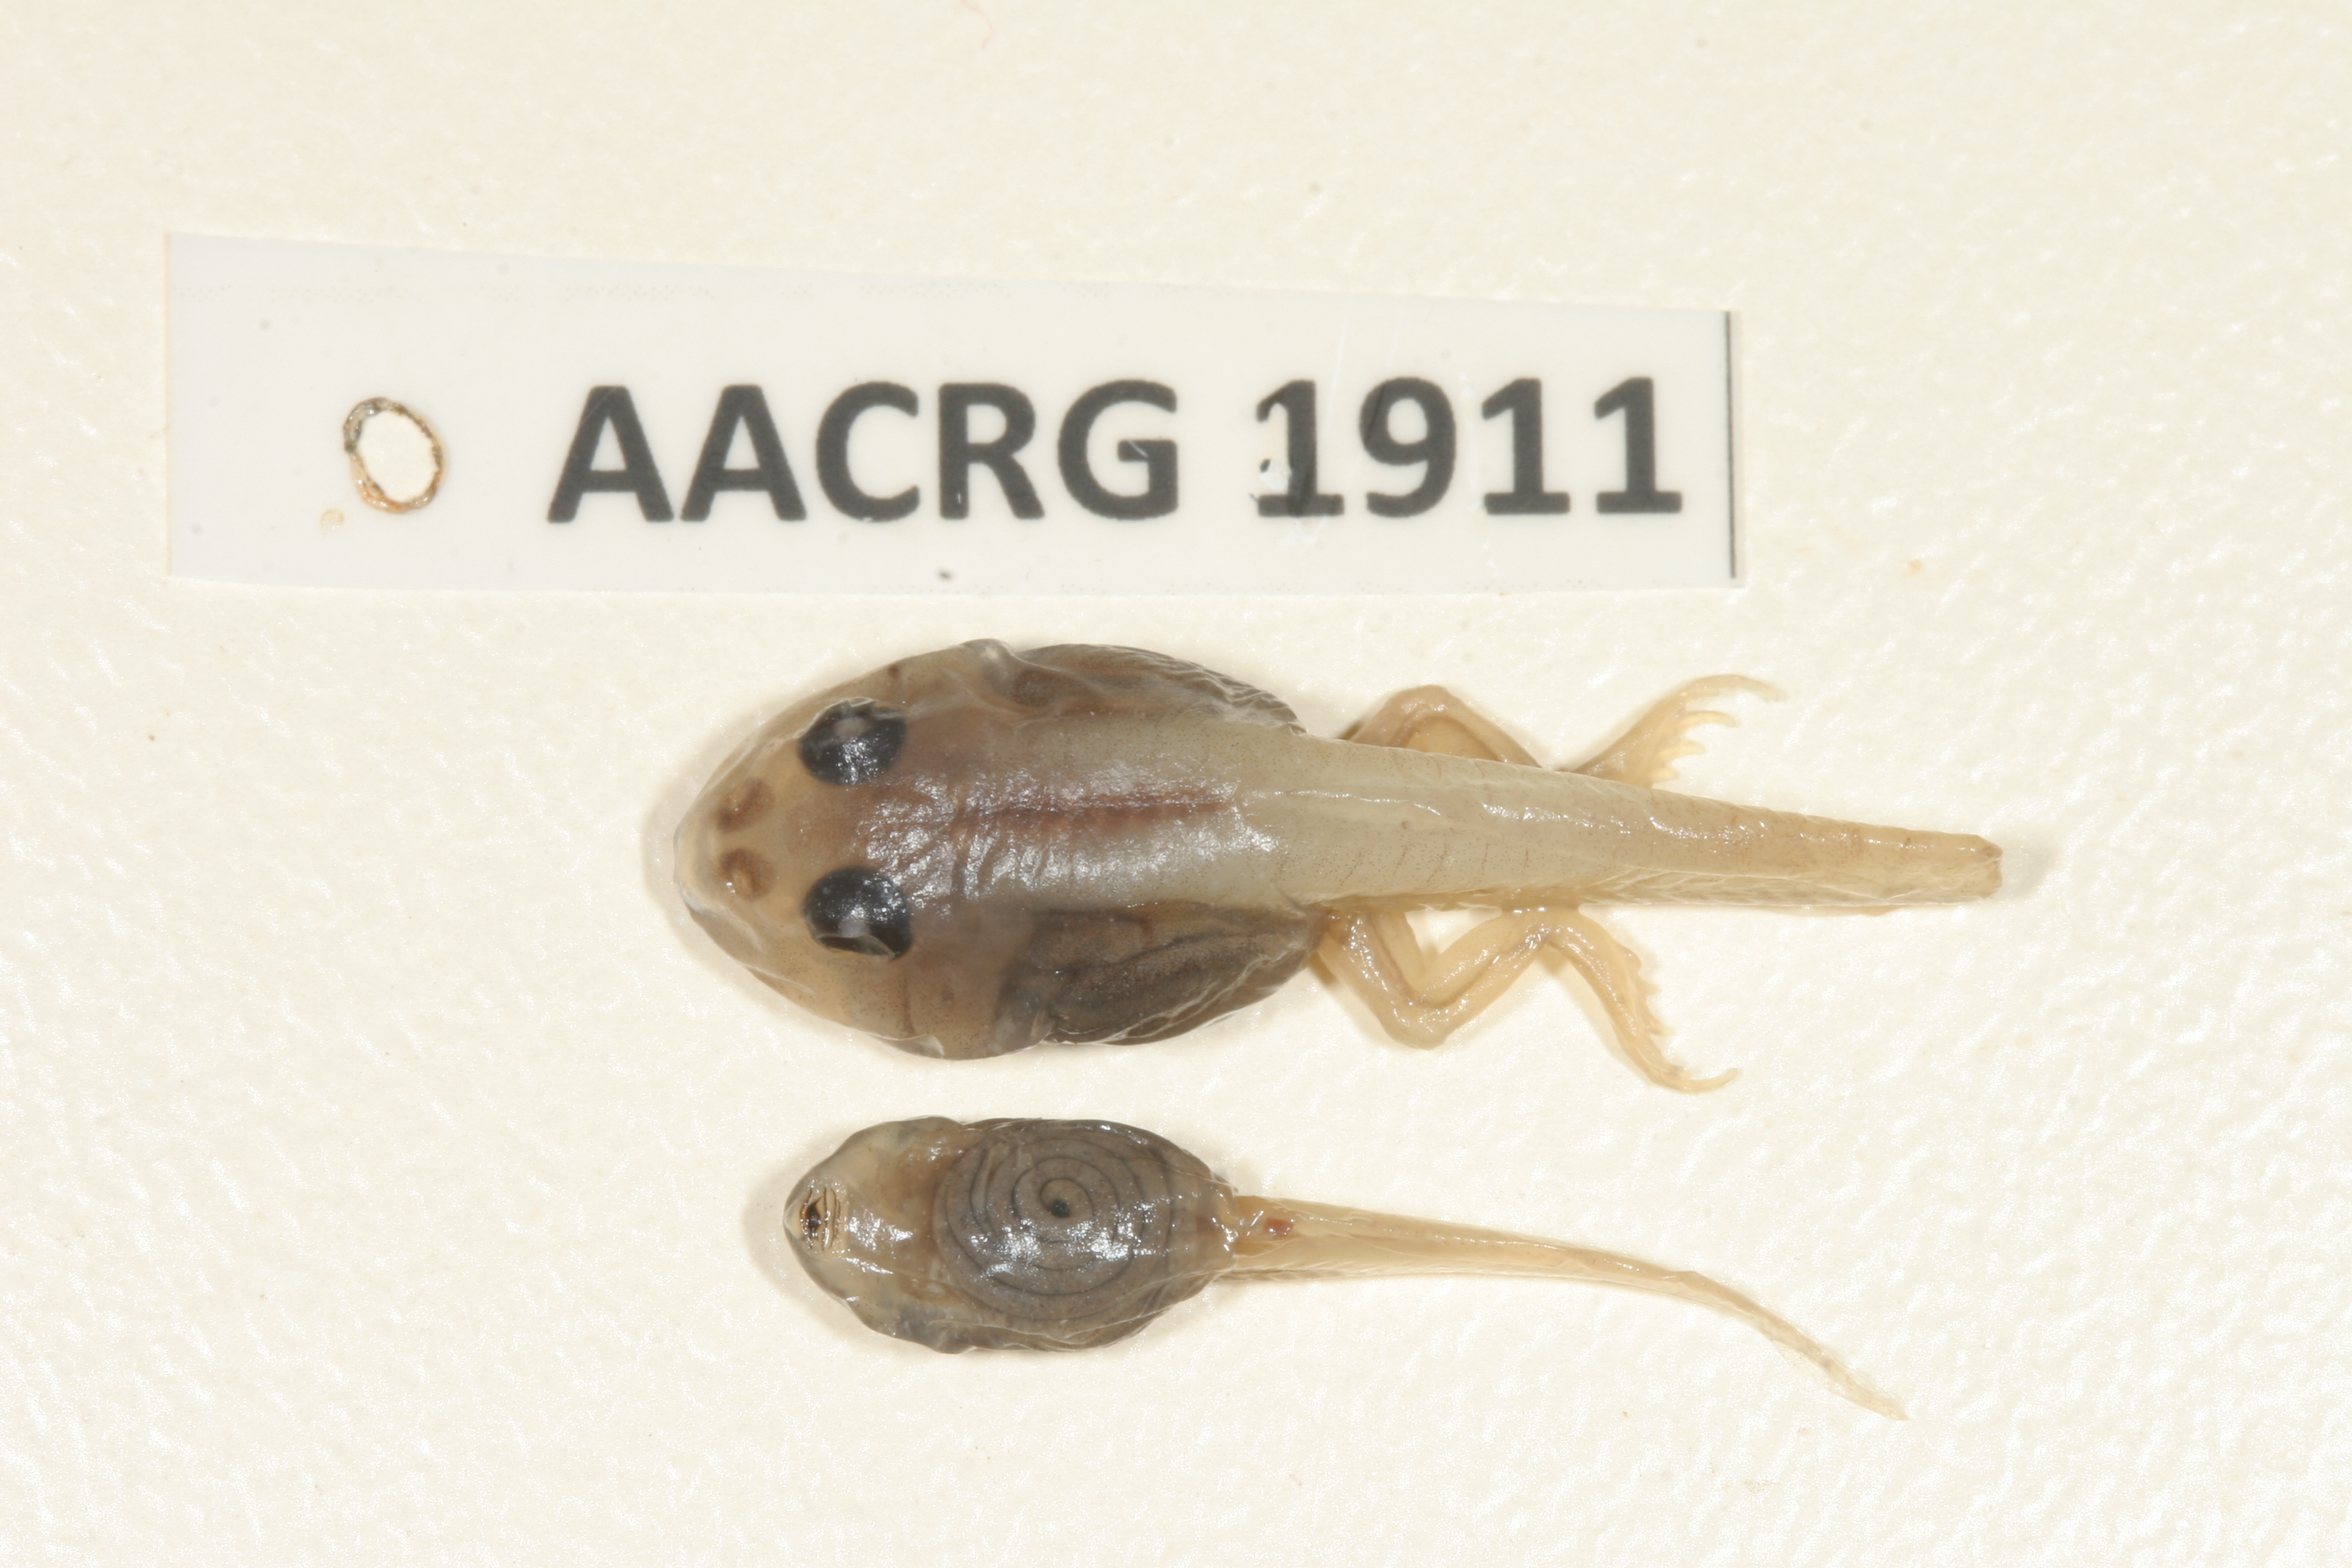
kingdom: Animalia
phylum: Chordata
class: Amphibia
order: Anura
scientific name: Anura
